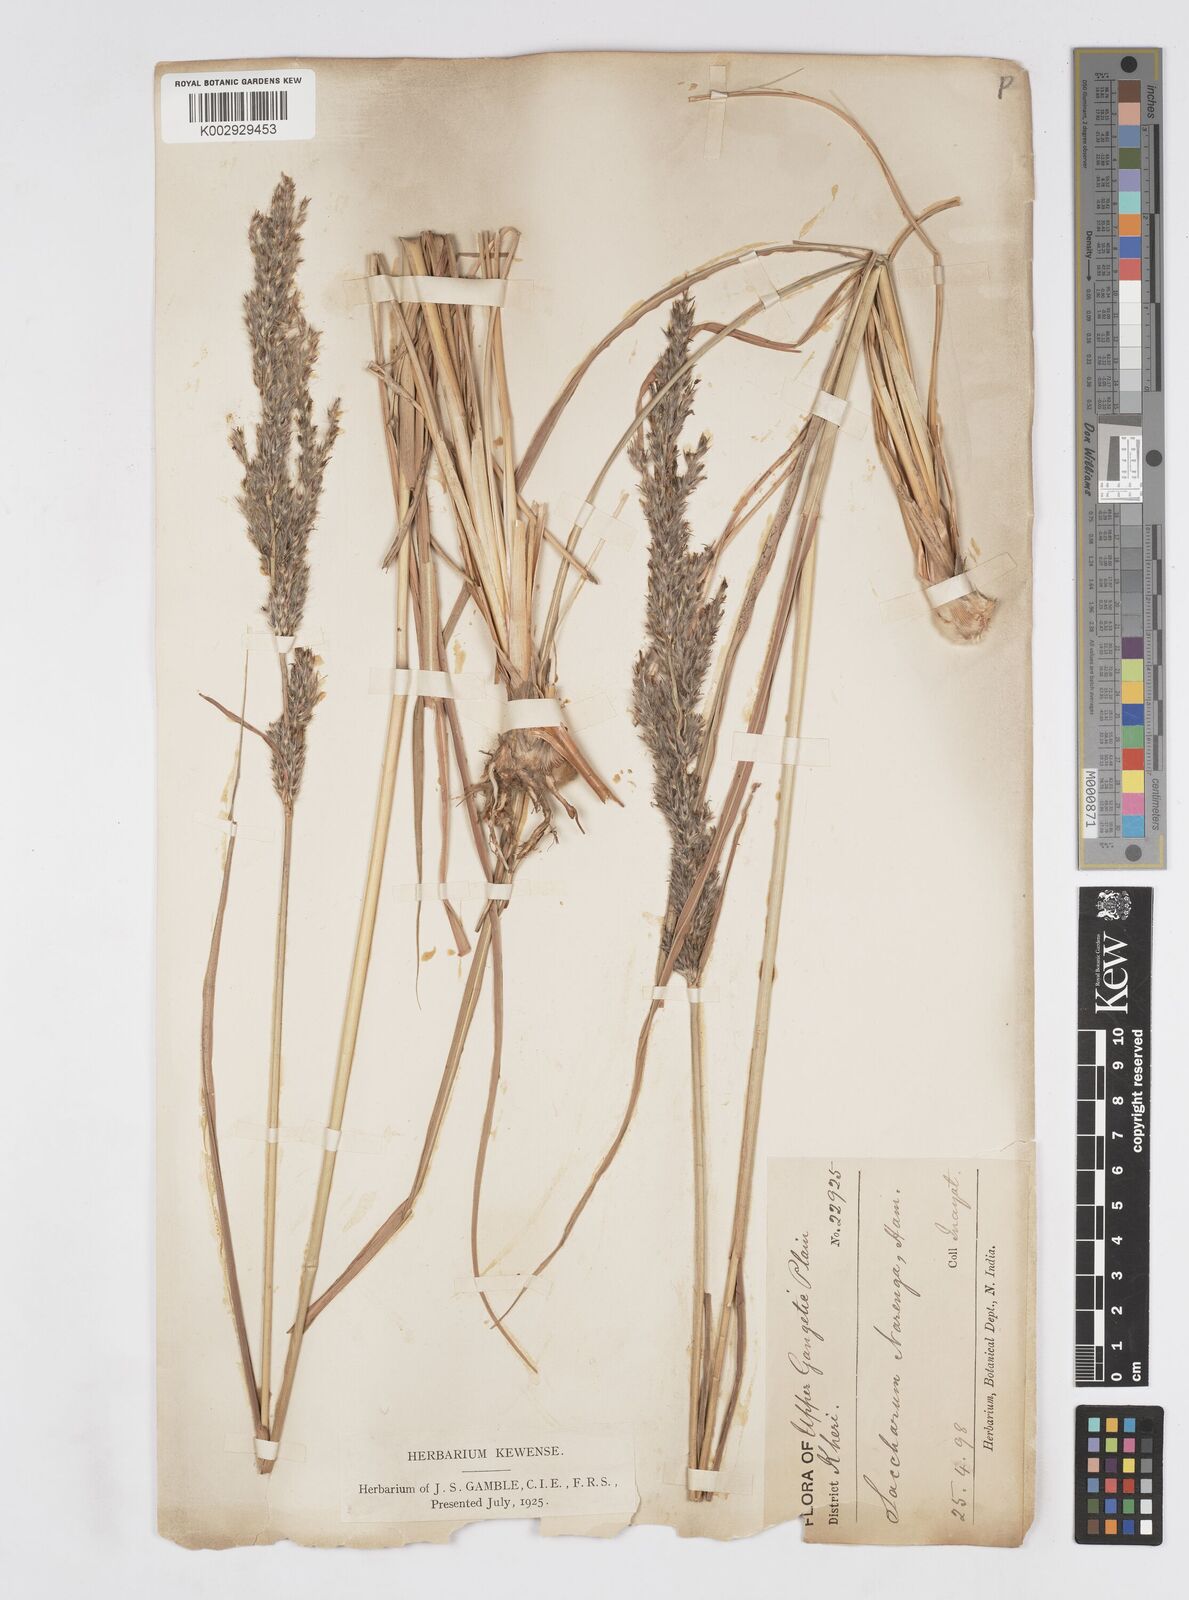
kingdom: Plantae
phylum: Tracheophyta
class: Liliopsida
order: Poales
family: Poaceae
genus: Saccharum
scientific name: Saccharum
